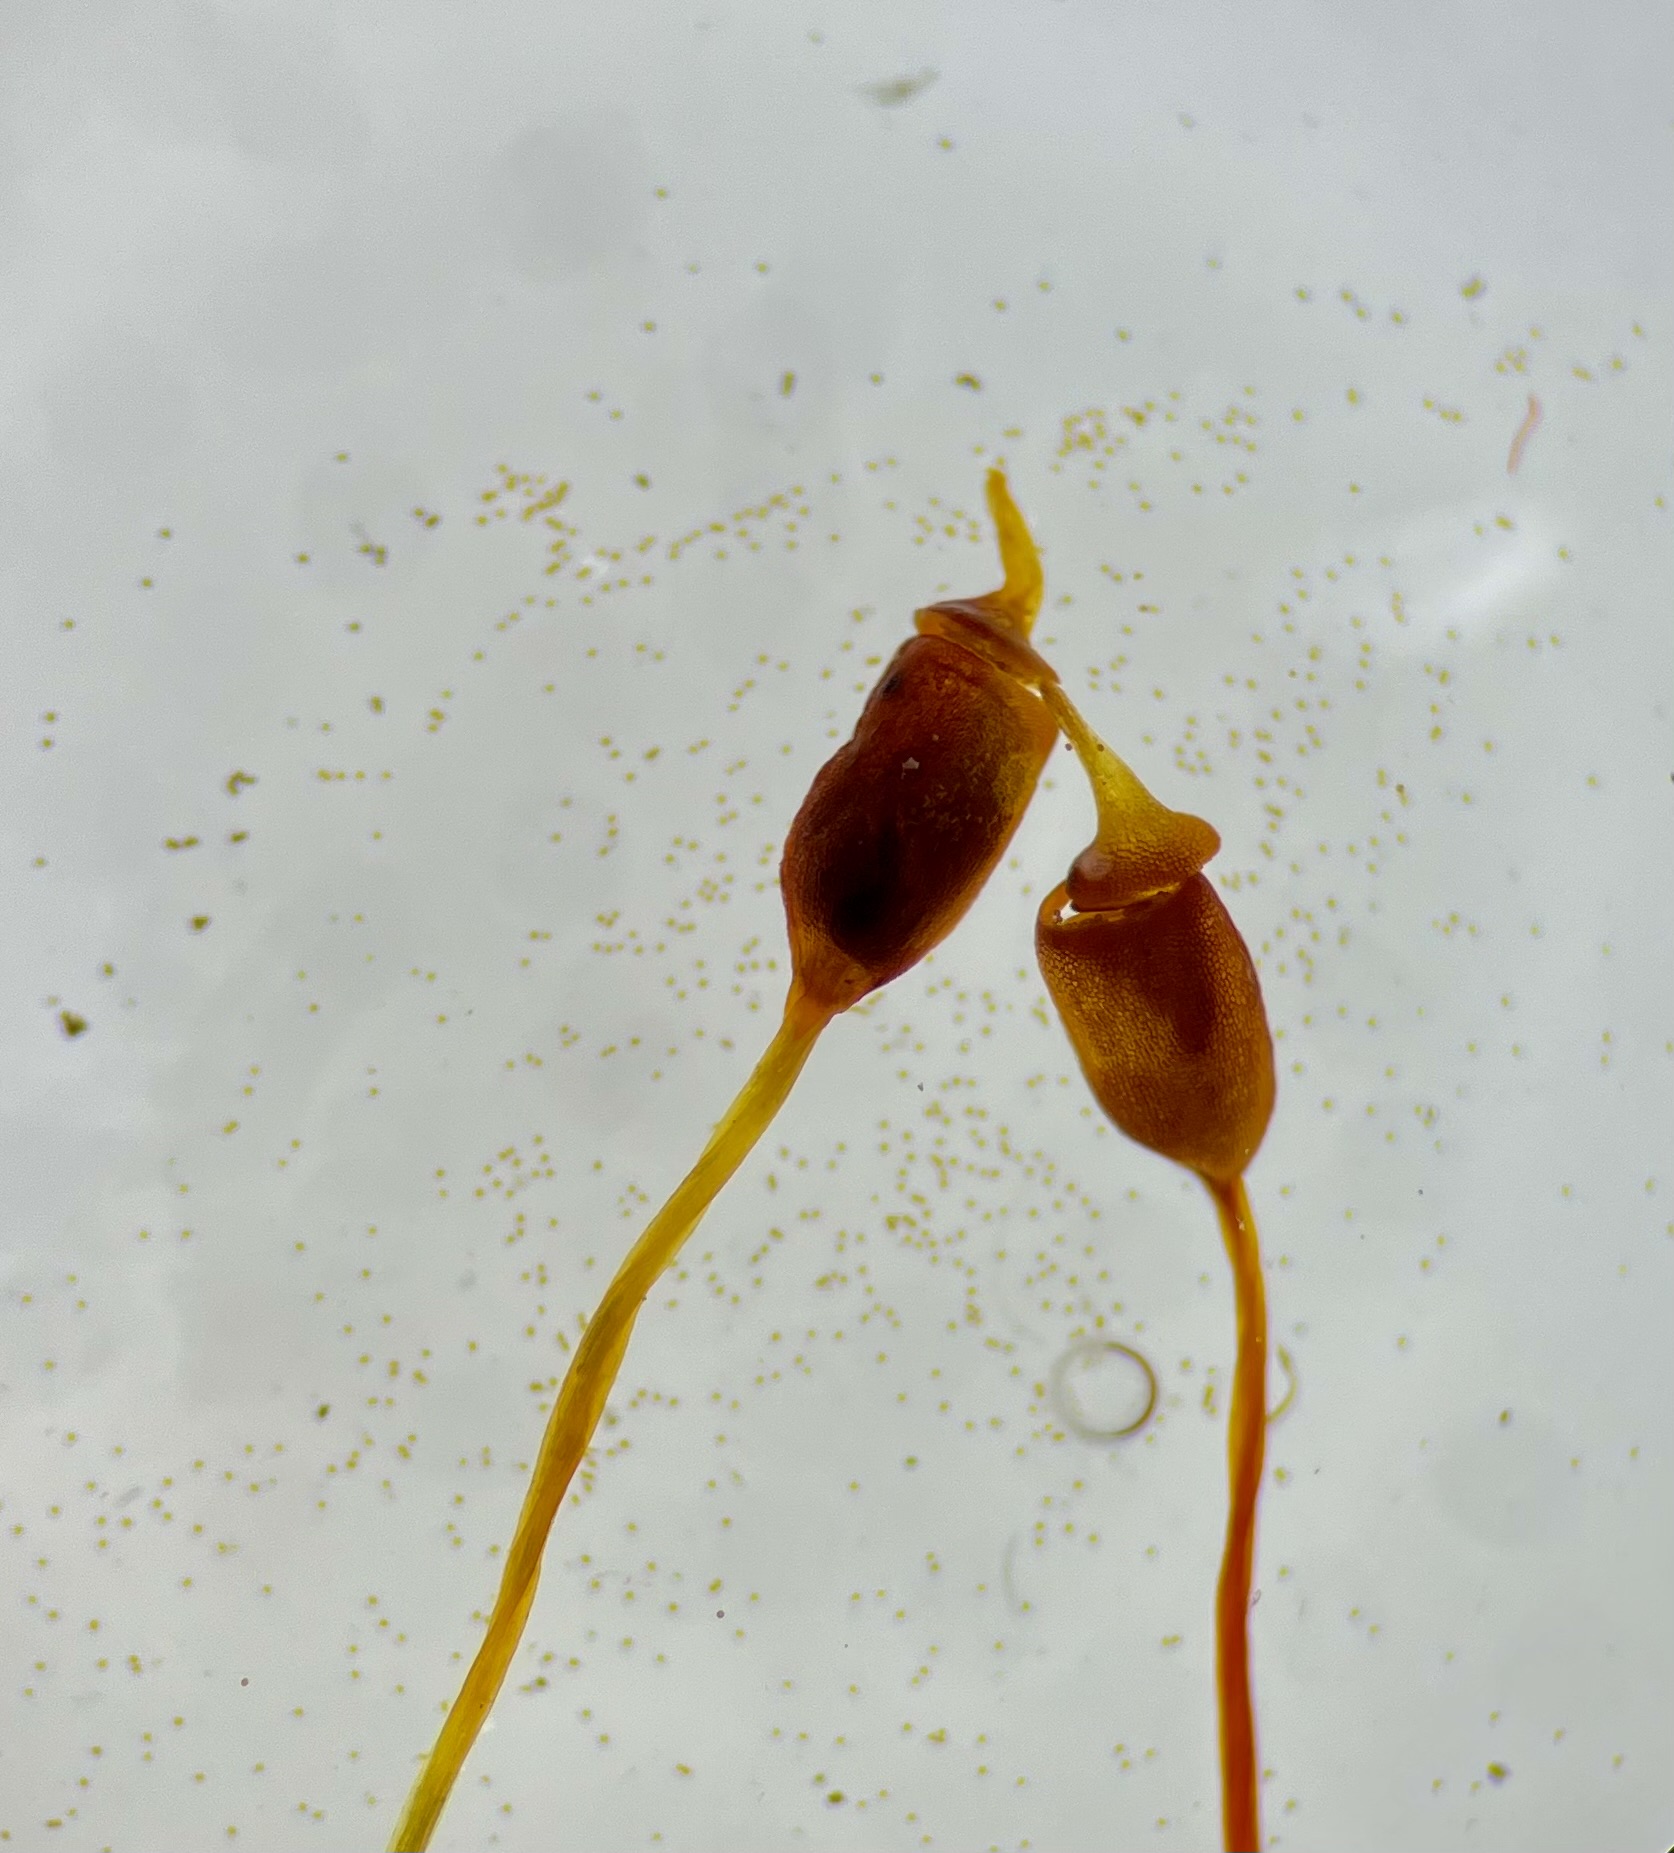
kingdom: Plantae
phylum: Bryophyta
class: Bryopsida
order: Pottiales
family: Pottiaceae
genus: Hennediella
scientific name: Hennediella heimii
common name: Salt-bægermos
